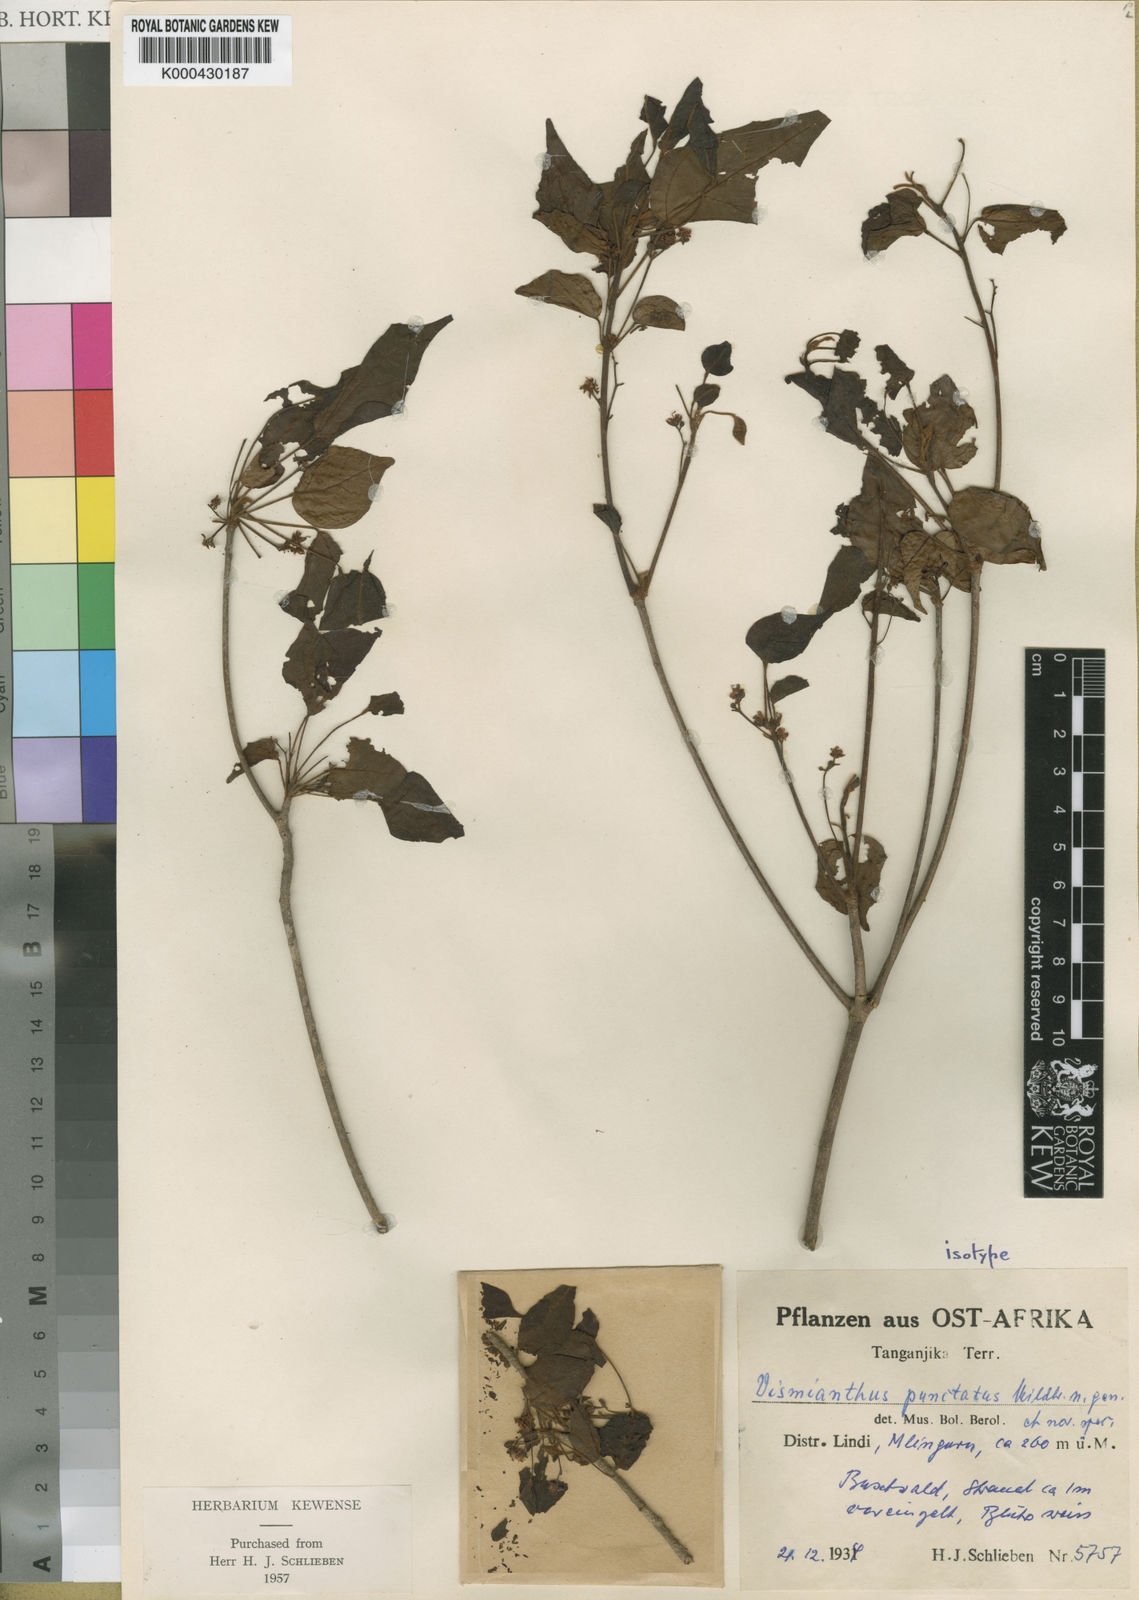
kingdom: Plantae
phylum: Tracheophyta
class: Magnoliopsida
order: Oxalidales
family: Connaraceae
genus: Vismianthus
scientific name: Vismianthus punctatus
